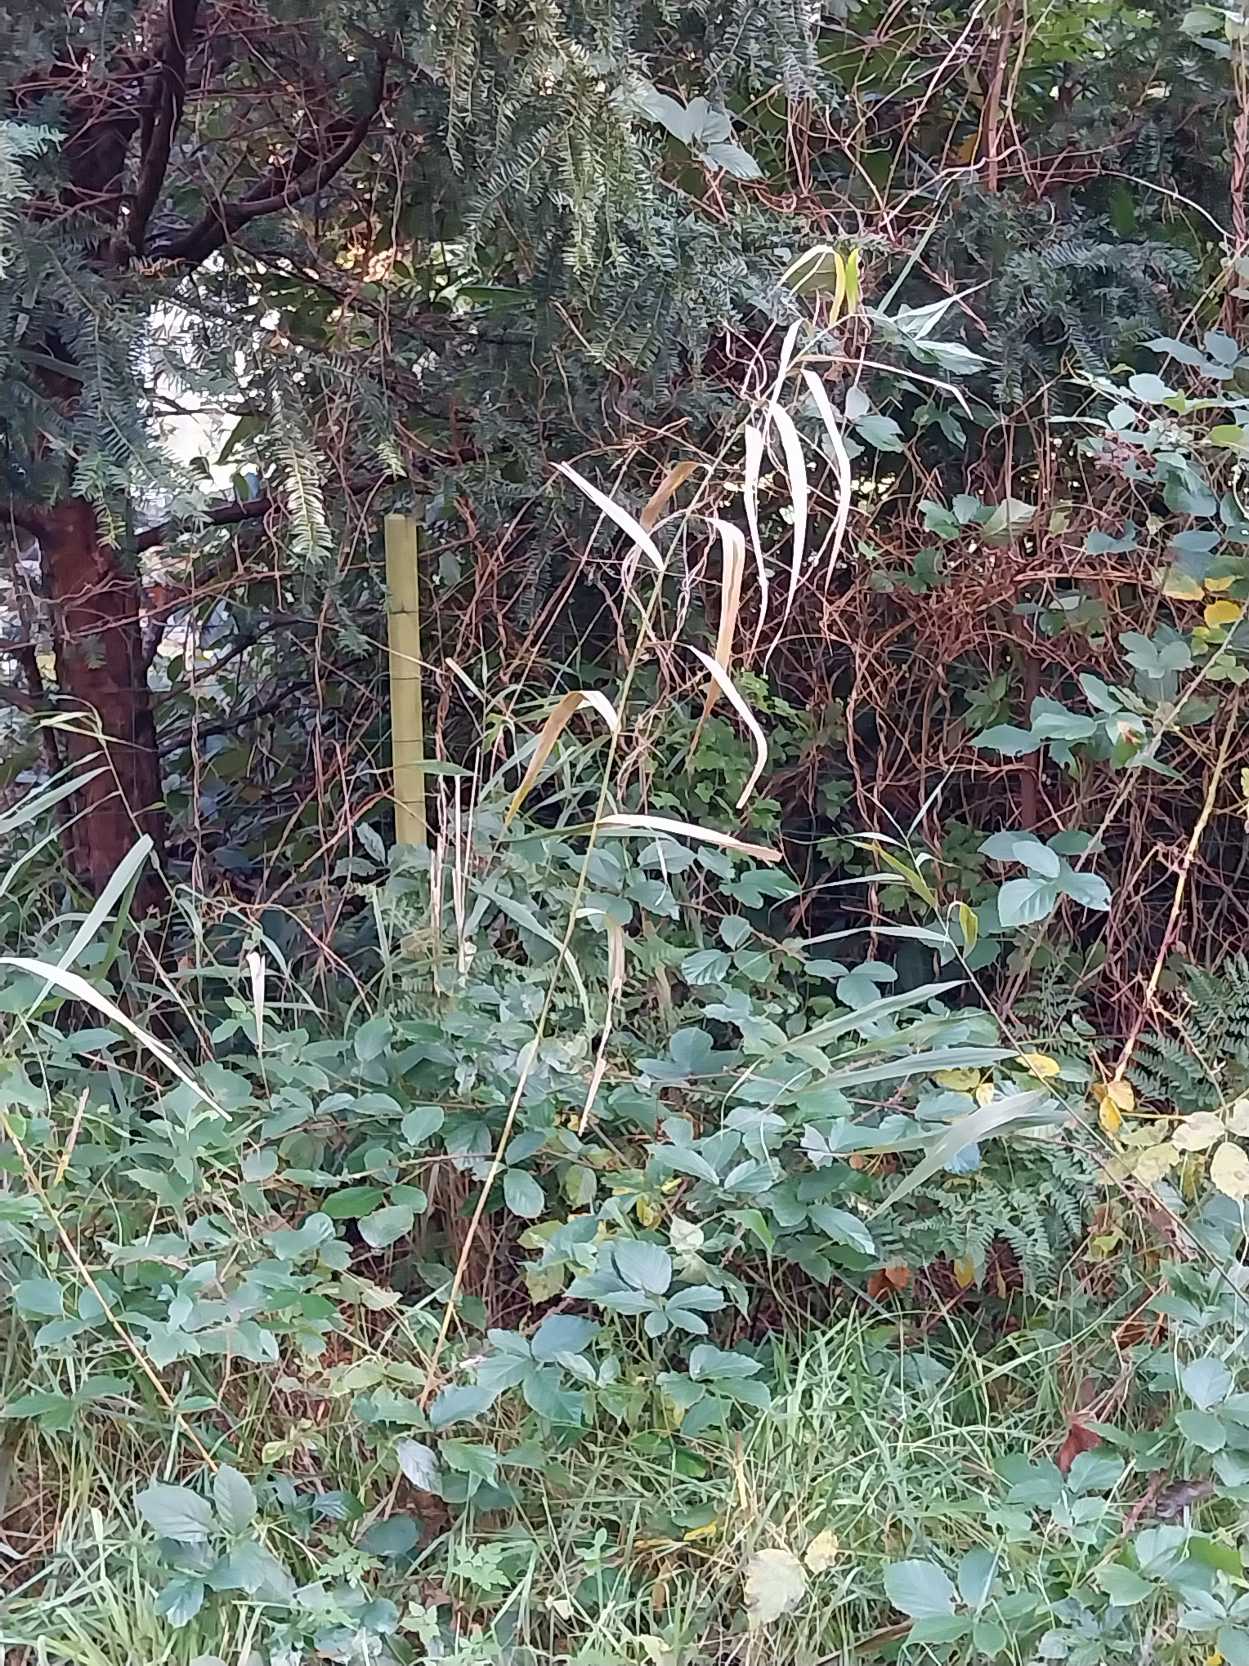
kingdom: Plantae
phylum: Tracheophyta
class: Liliopsida
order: Poales
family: Poaceae
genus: Phragmites
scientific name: Phragmites australis
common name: Tagrør
